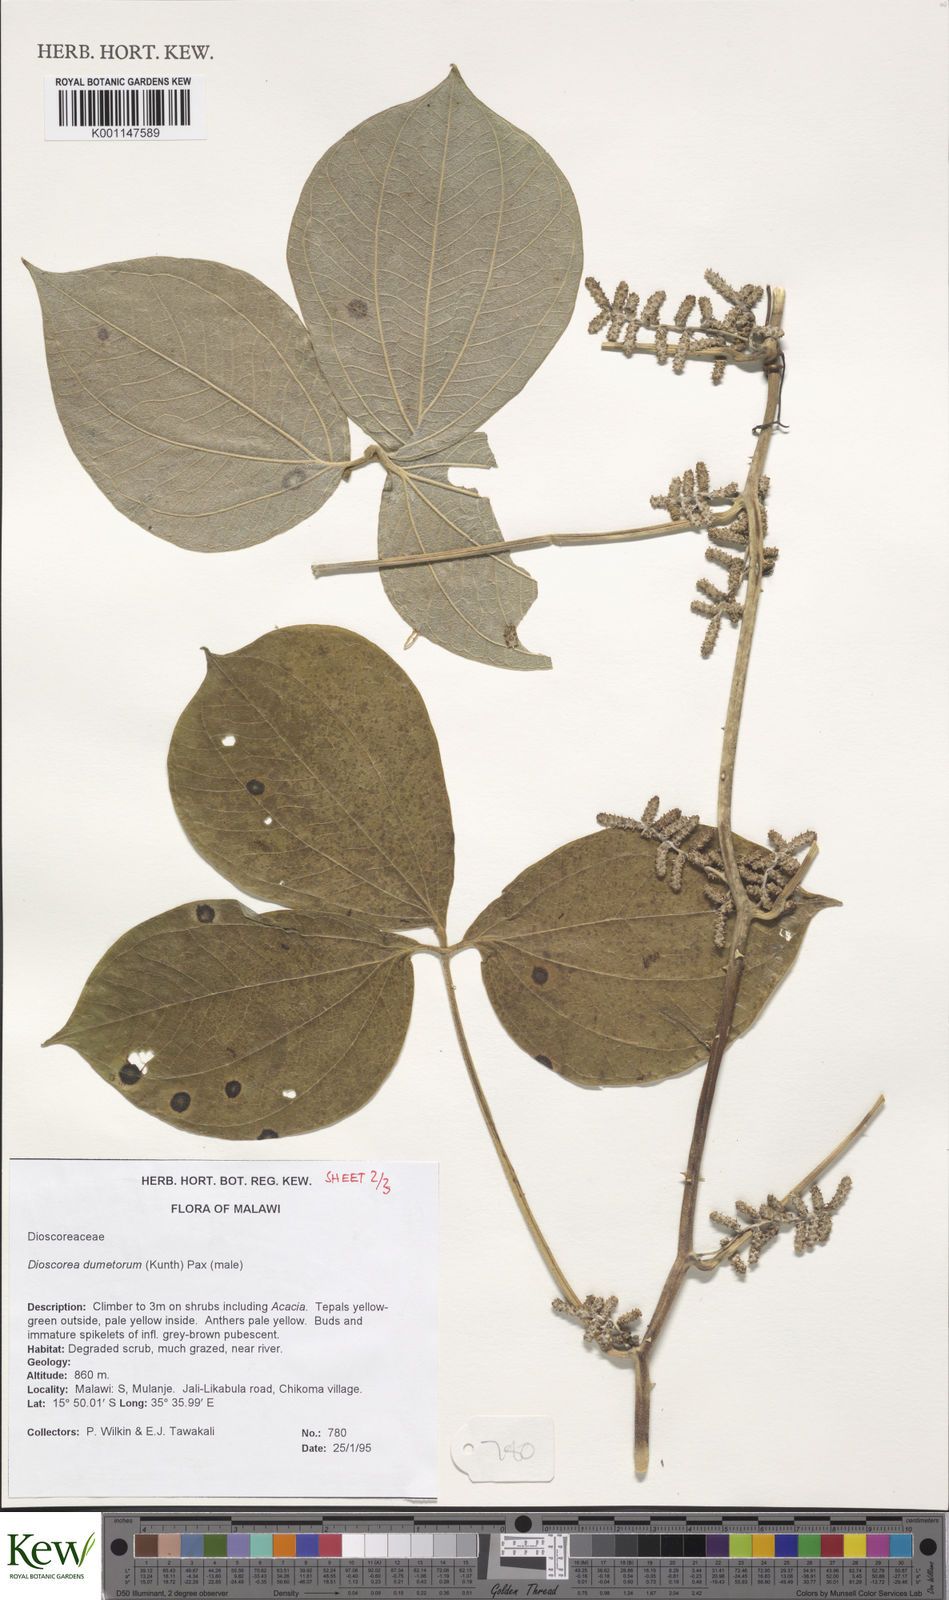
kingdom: Plantae
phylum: Tracheophyta
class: Liliopsida
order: Dioscoreales
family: Dioscoreaceae
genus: Dioscorea
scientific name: Dioscorea dumetorum
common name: African bitter yam
